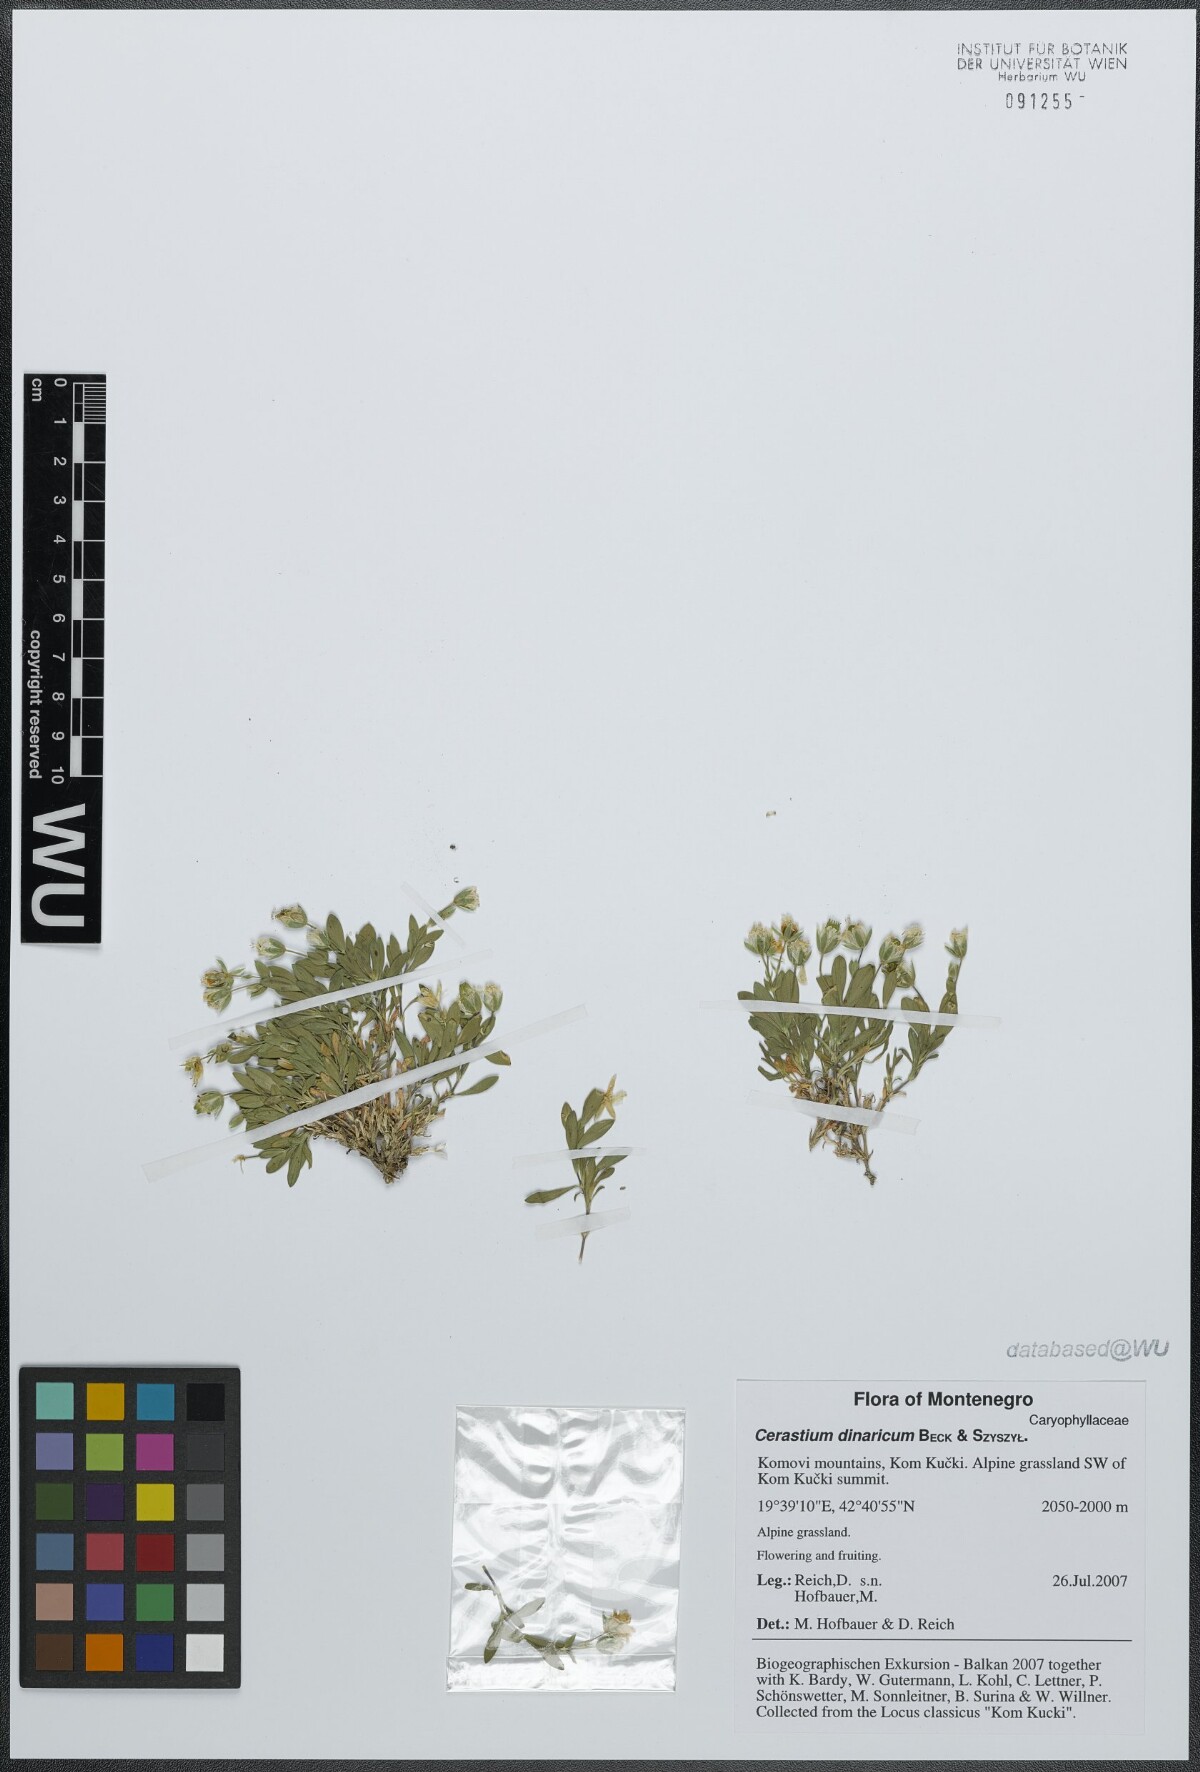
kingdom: Plantae
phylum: Tracheophyta
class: Magnoliopsida
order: Caryophyllales
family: Caryophyllaceae
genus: Cerastium
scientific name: Cerastium dinaricum
